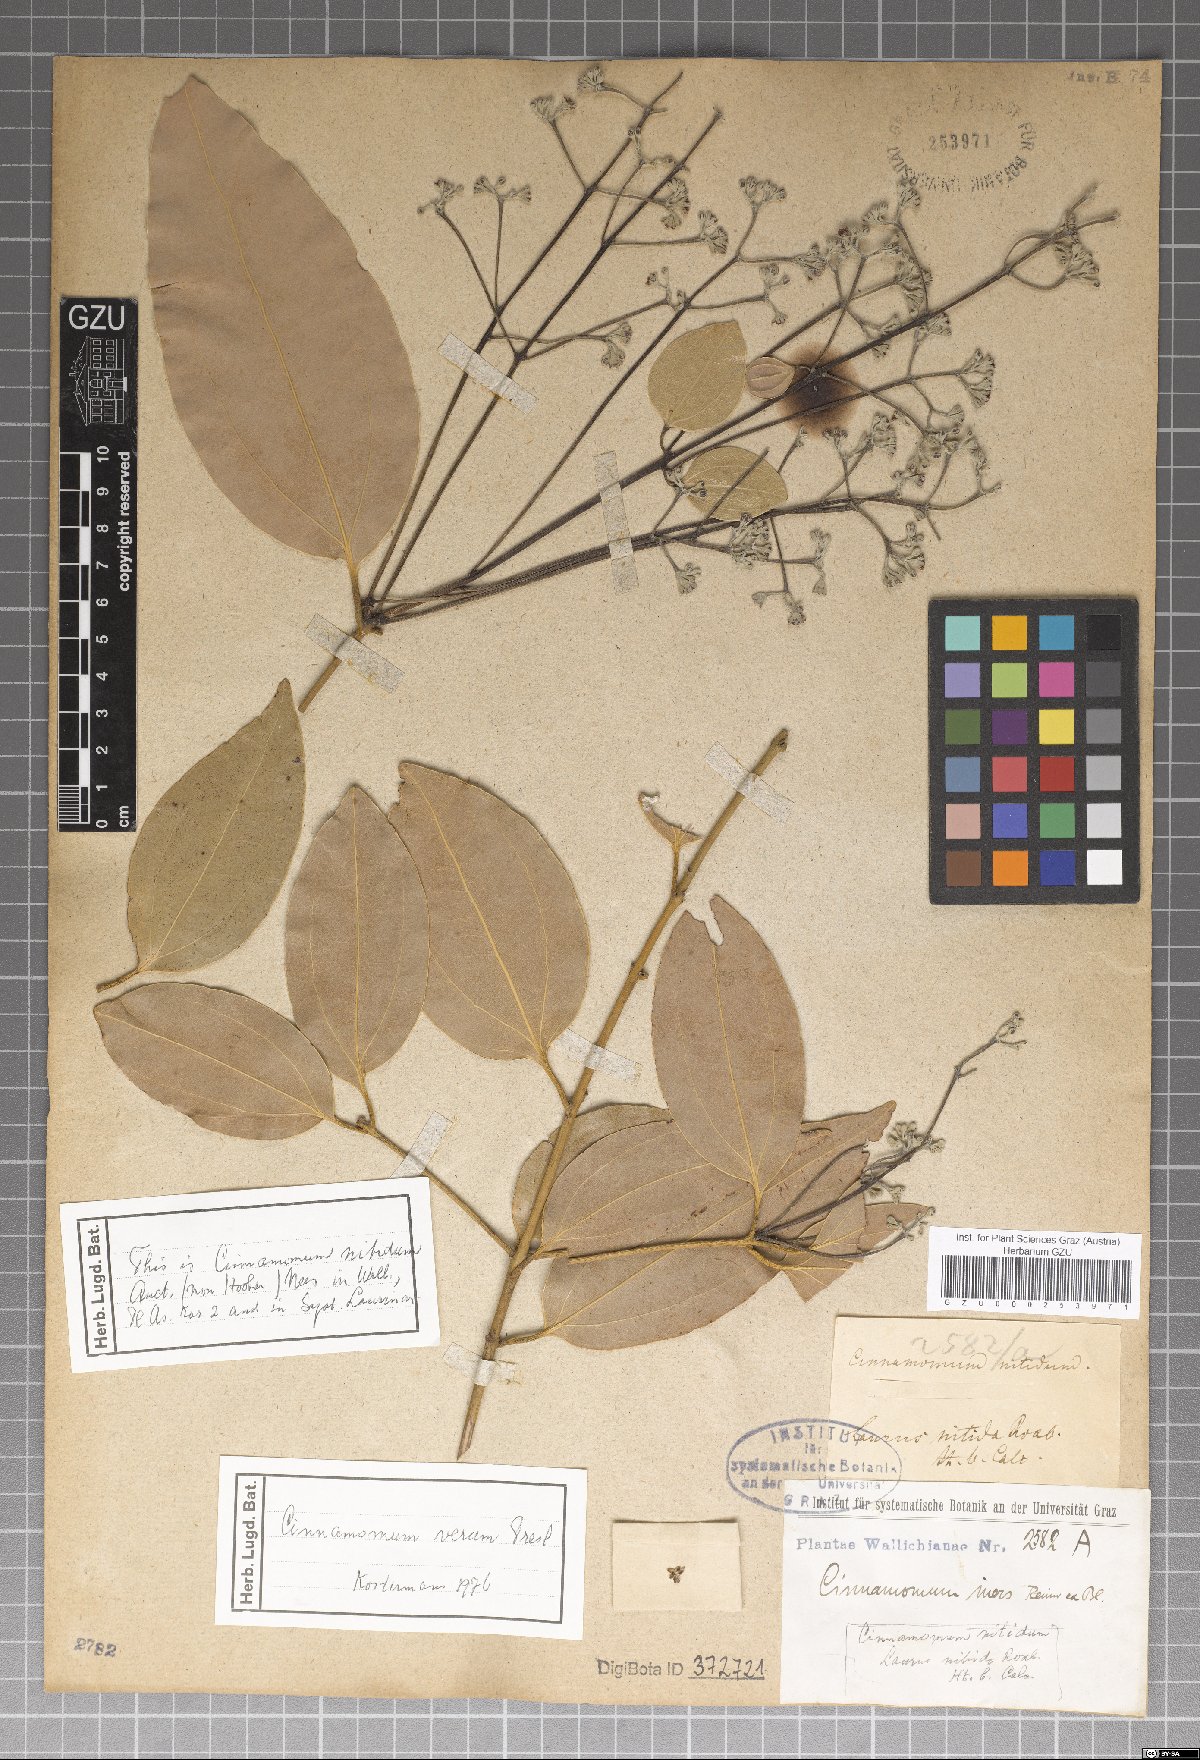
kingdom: Plantae
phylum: Tracheophyta
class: Magnoliopsida
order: Laurales
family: Lauraceae
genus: Cinnamomum
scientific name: Cinnamomum verum
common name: Cinnamon
